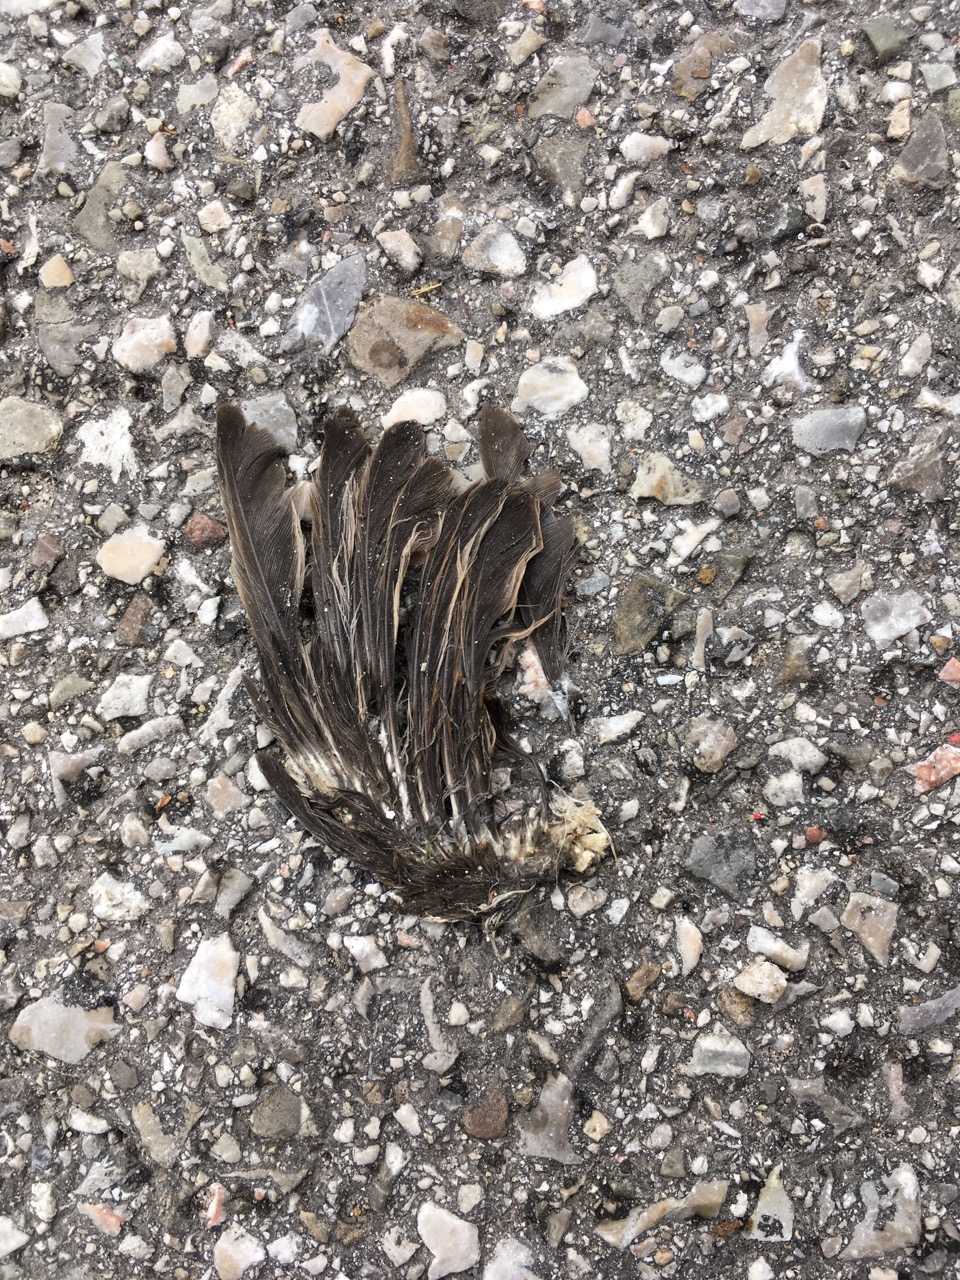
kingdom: Animalia
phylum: Chordata
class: Aves
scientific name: Aves
